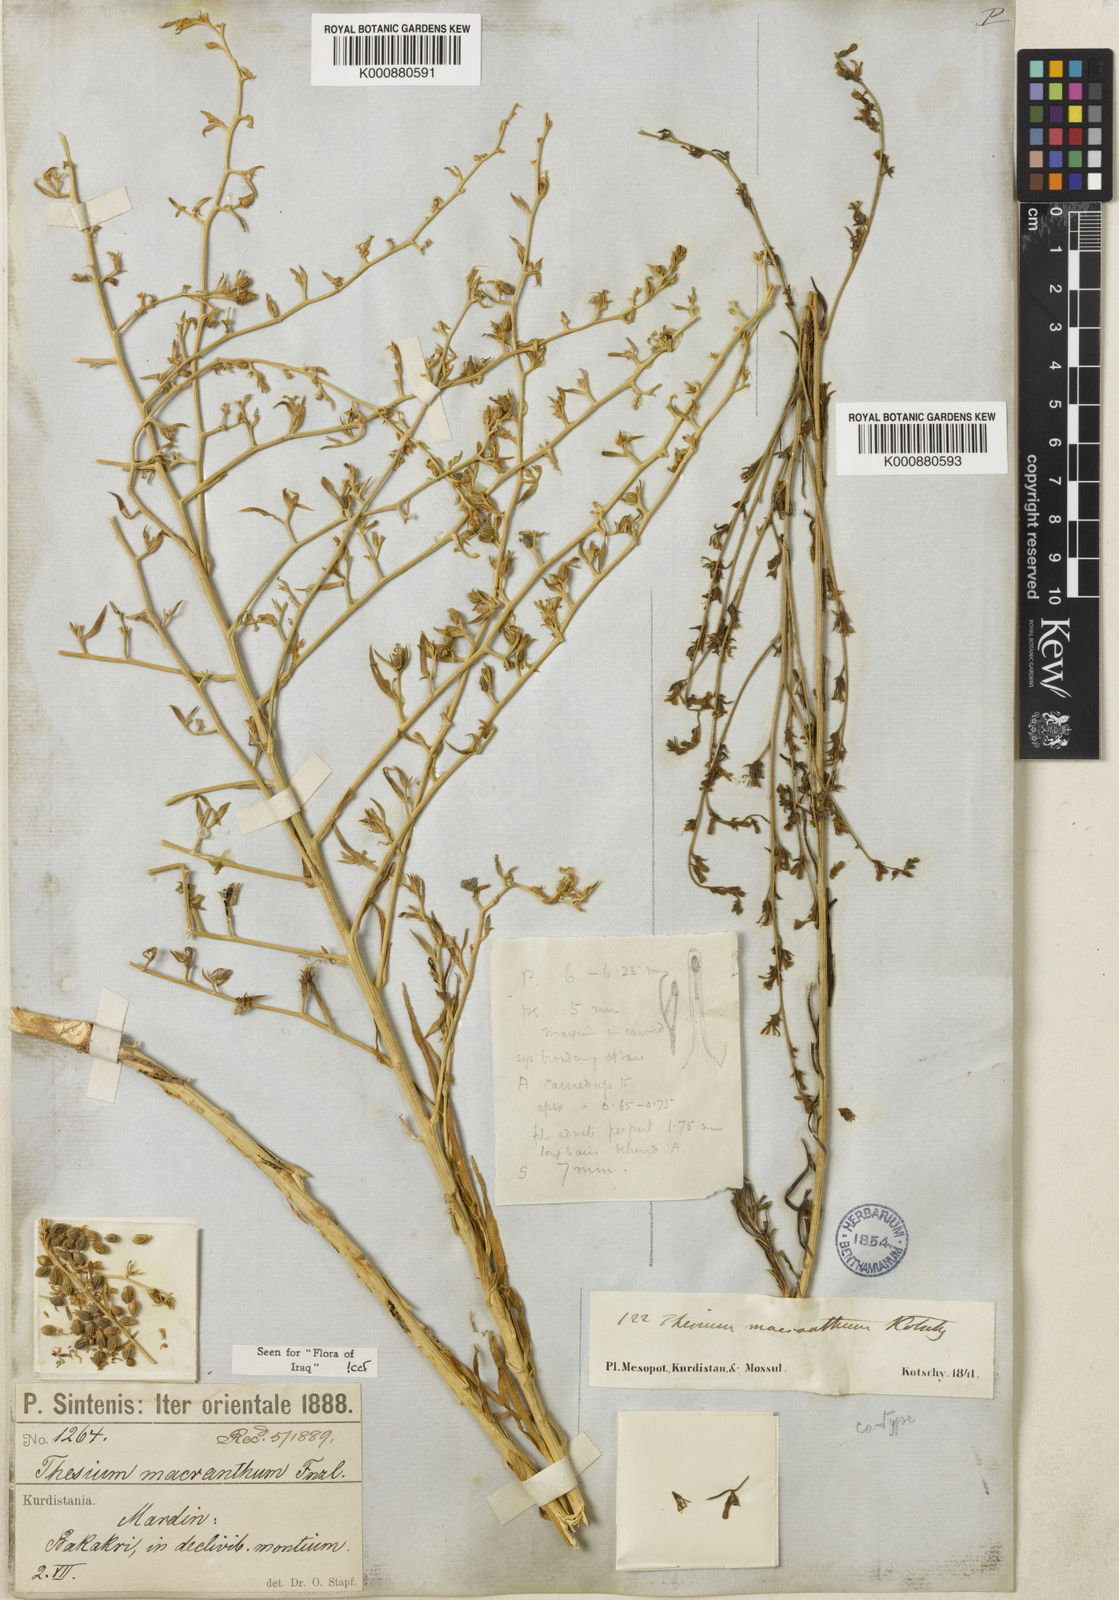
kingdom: Plantae
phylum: Tracheophyta
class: Magnoliopsida
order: Santalales
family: Thesiaceae
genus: Thesium
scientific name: Thesium macranthum
